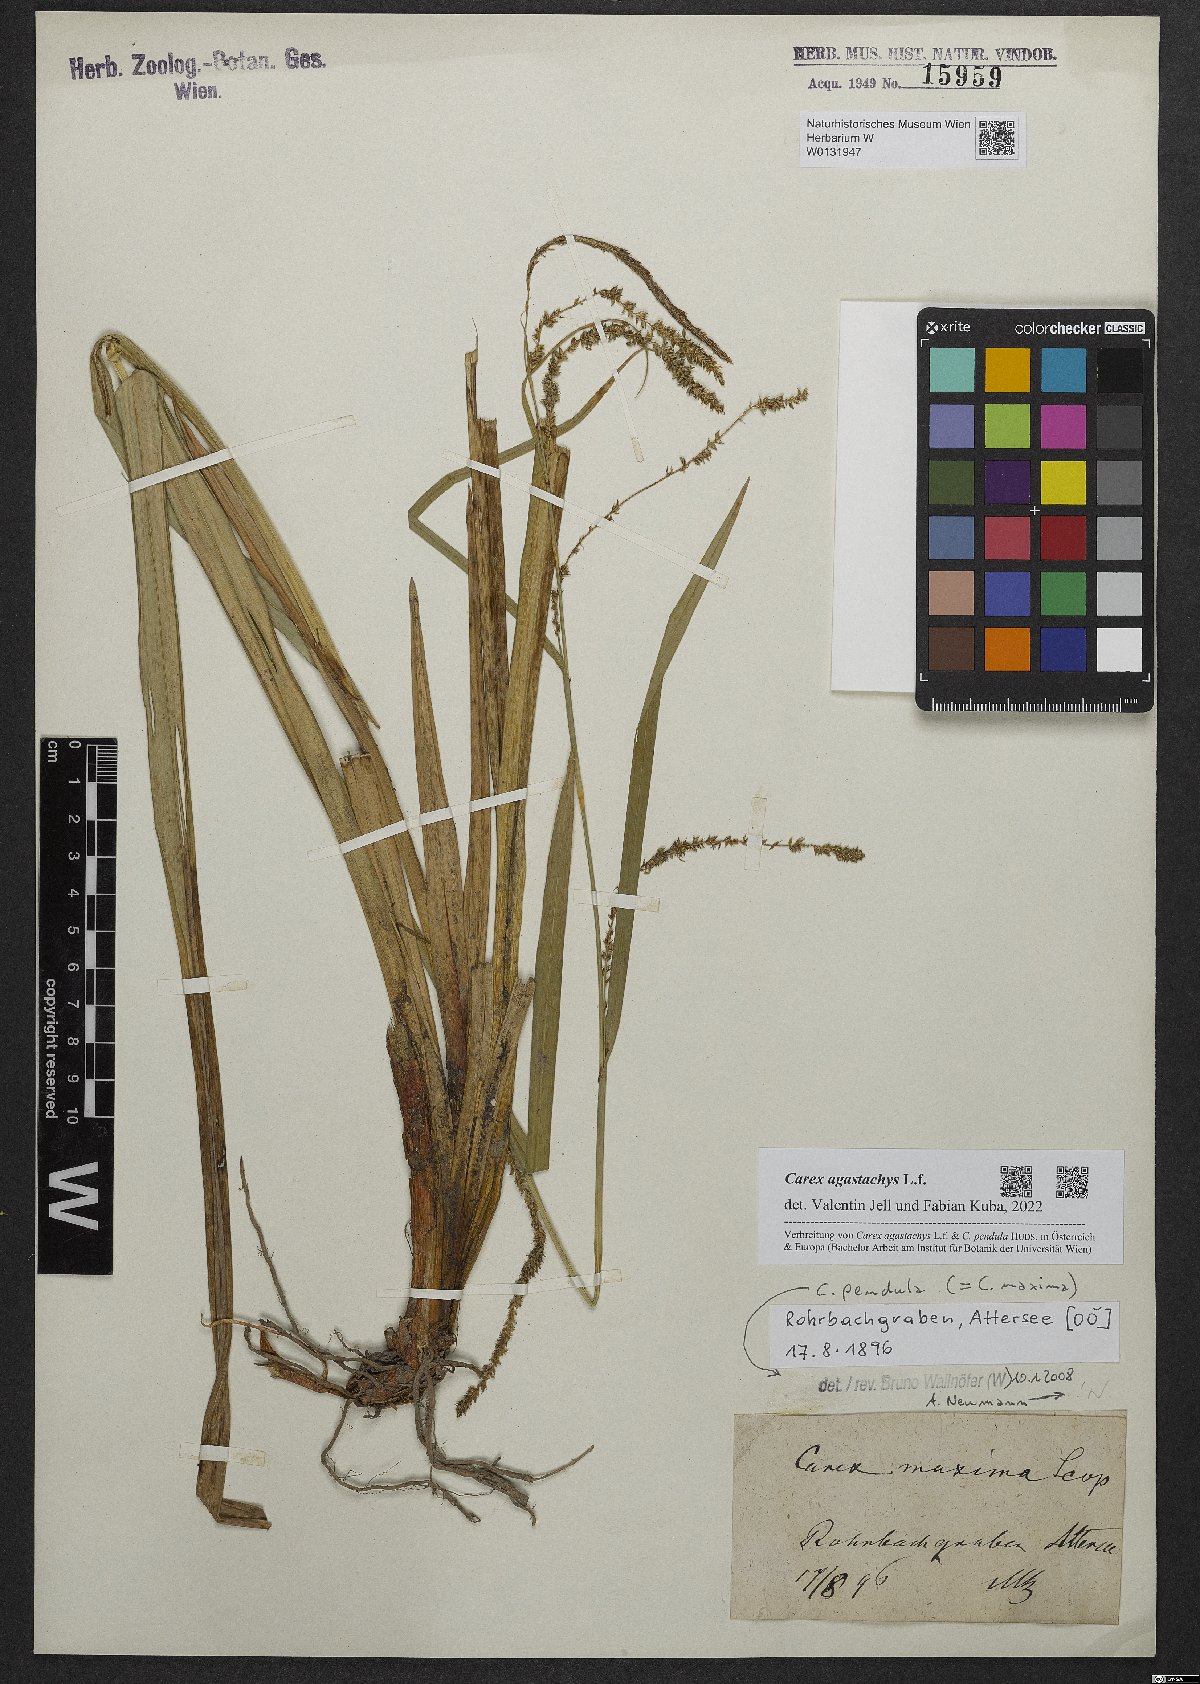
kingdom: Plantae
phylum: Tracheophyta
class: Liliopsida
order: Poales
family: Cyperaceae
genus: Carex
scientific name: Carex agastachys
